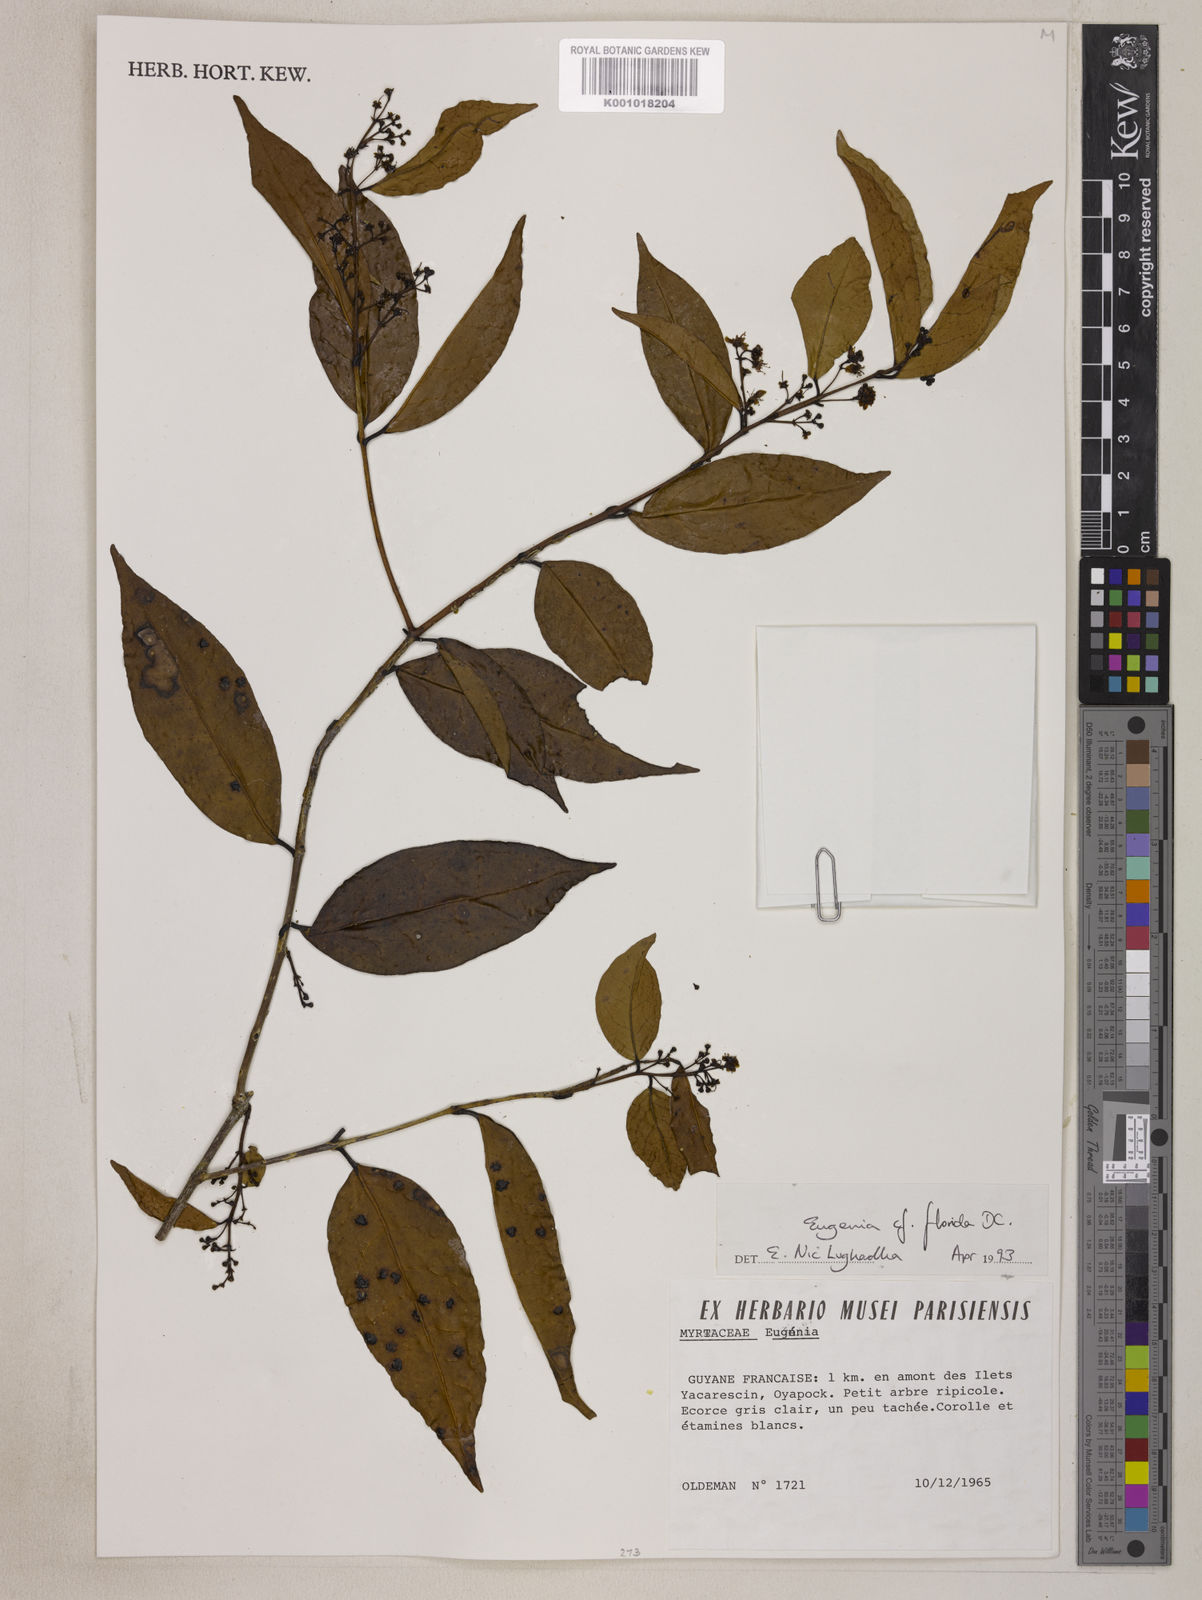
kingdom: Plantae
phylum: Tracheophyta
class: Magnoliopsida
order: Myrtales
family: Myrtaceae
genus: Eugenia
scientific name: Eugenia florida
